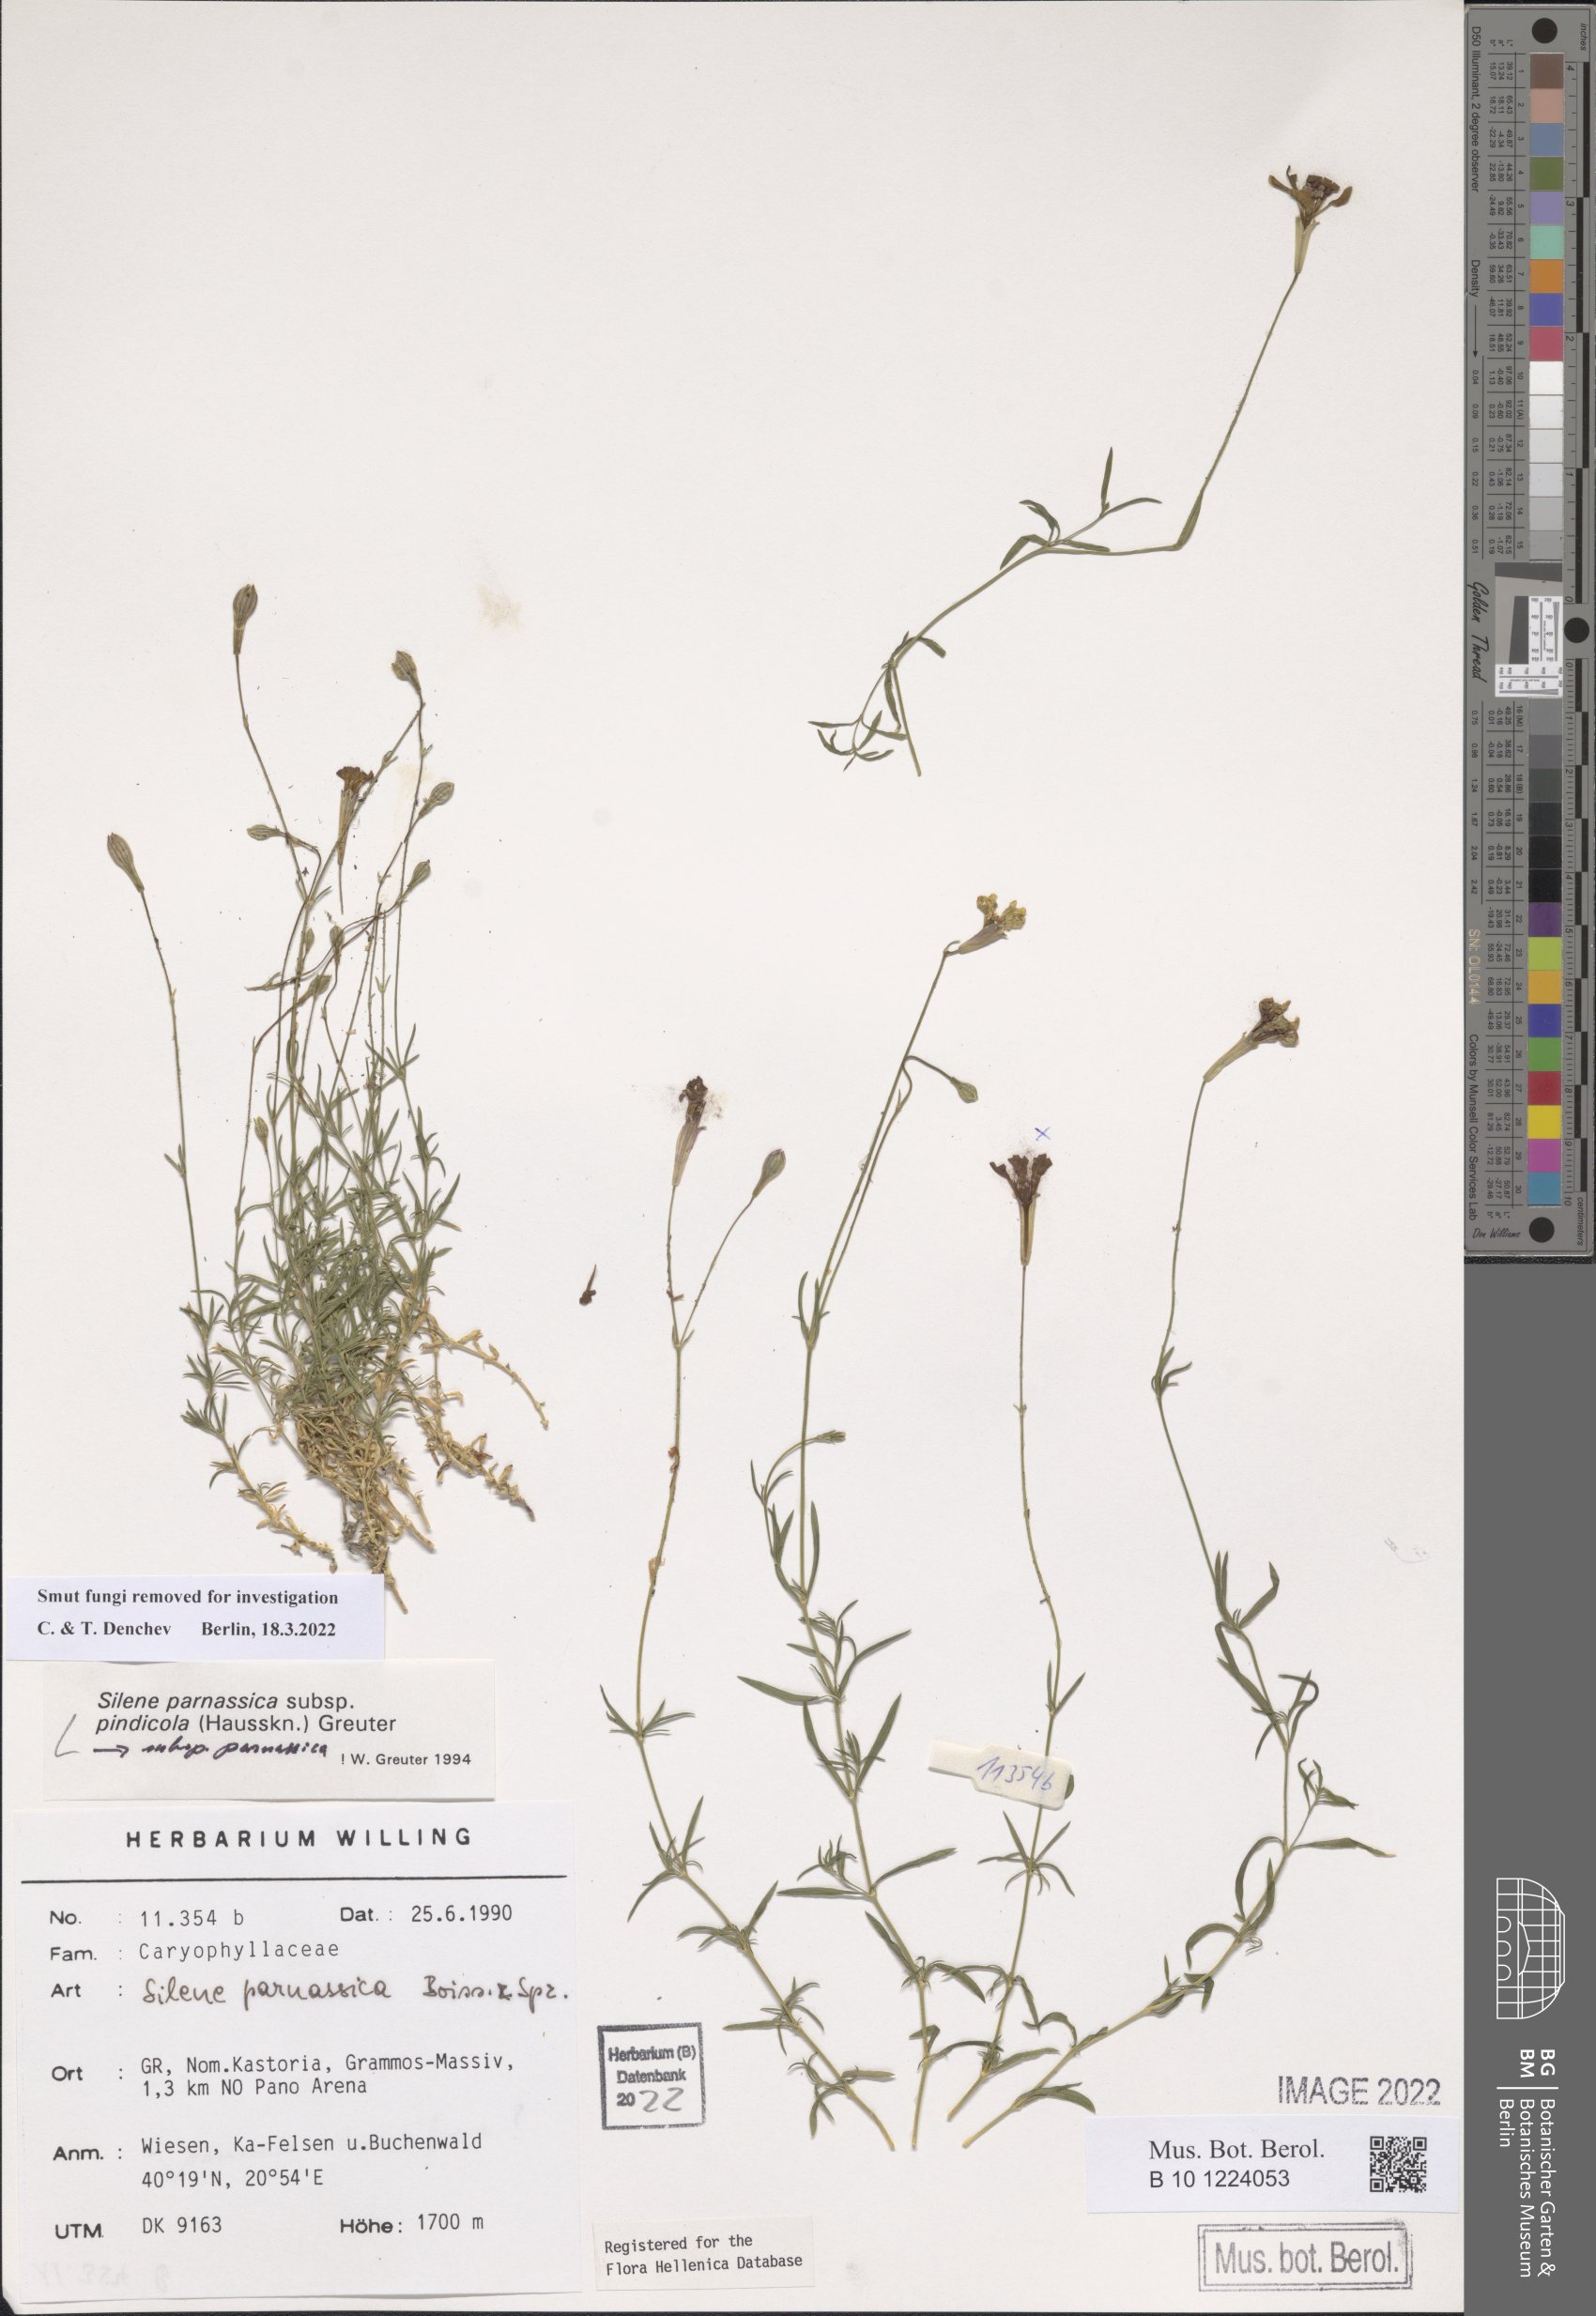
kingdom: Plantae
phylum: Tracheophyta
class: Magnoliopsida
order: Caryophyllales
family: Caryophyllaceae
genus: Silene
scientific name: Silene parnassica
